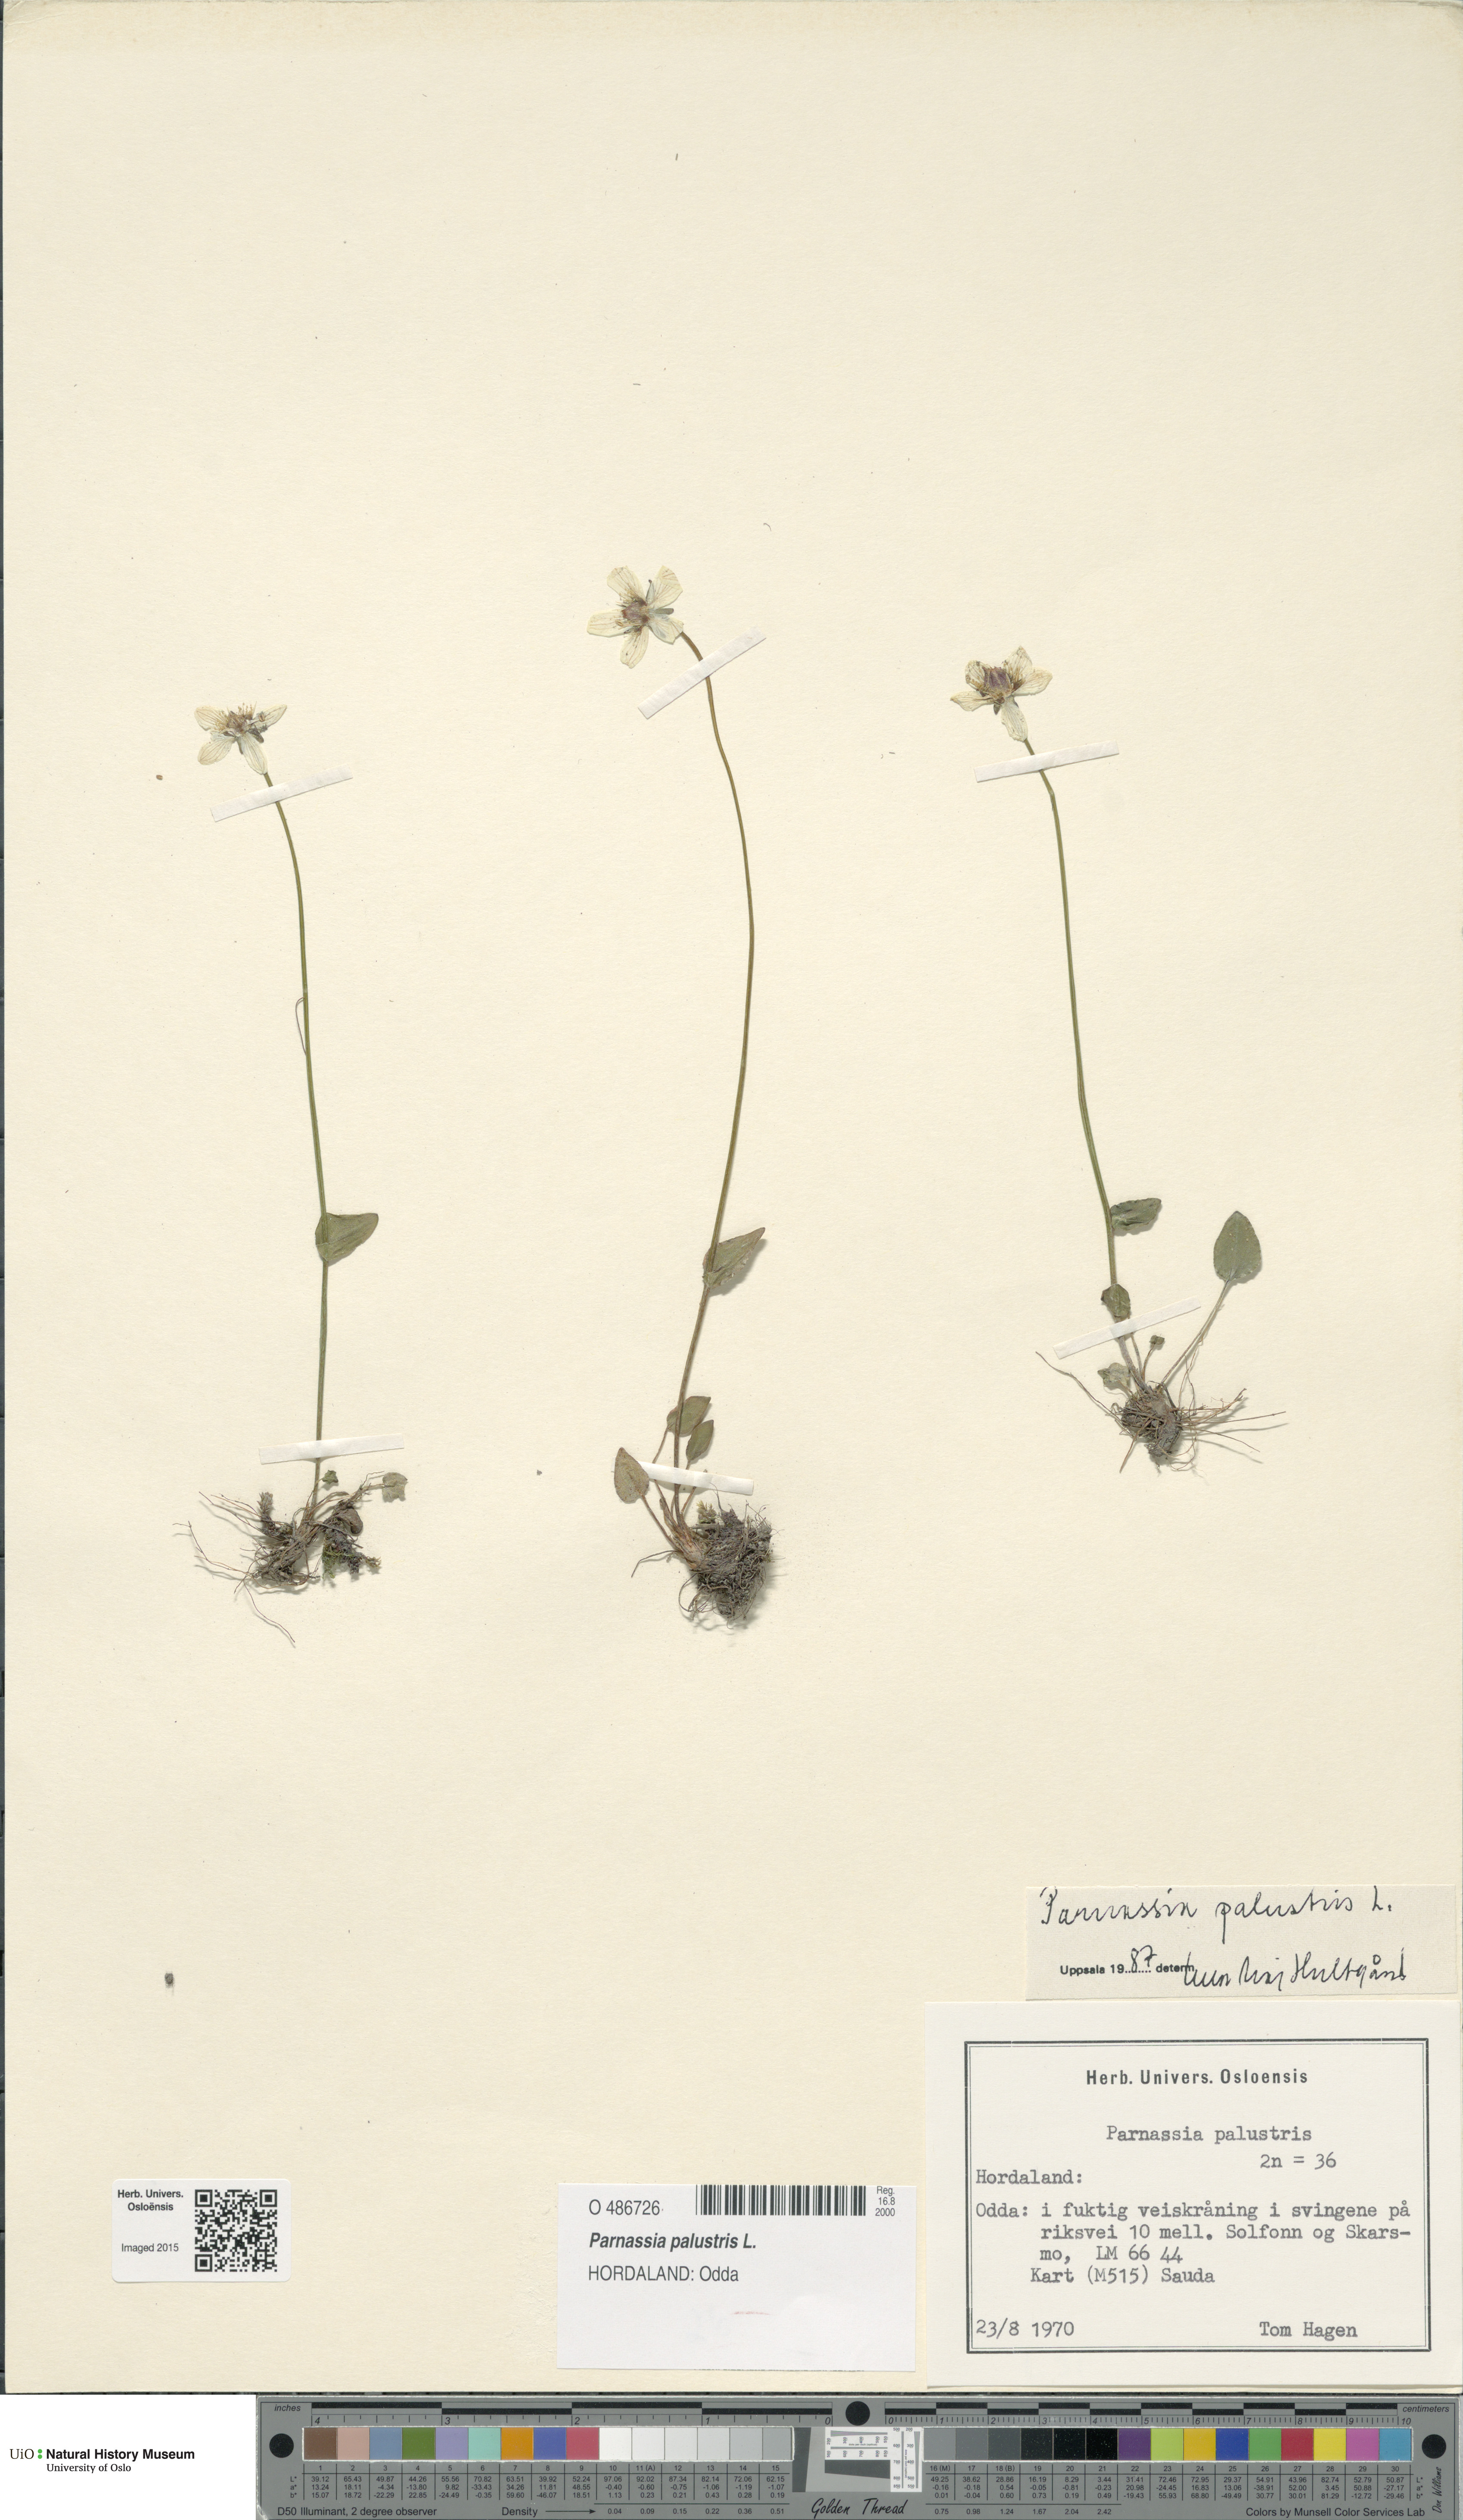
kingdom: Plantae
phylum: Tracheophyta
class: Magnoliopsida
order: Celastrales
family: Parnassiaceae
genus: Parnassia
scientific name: Parnassia palustris
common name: Grass-of-parnassus
